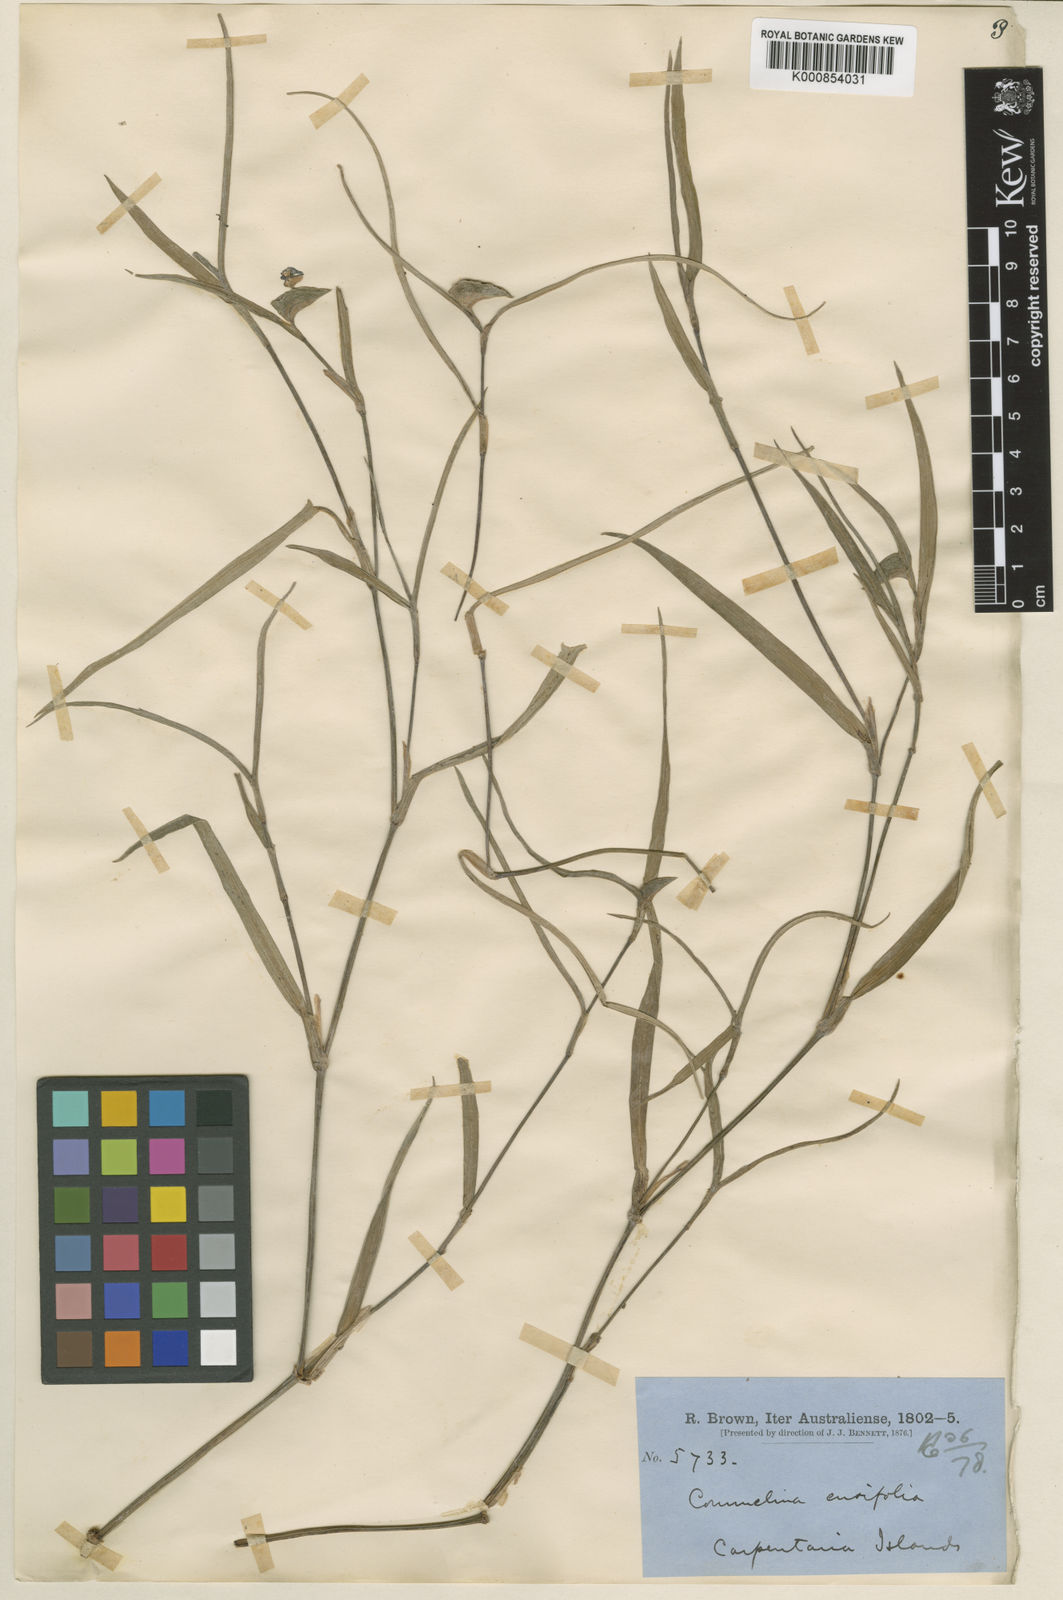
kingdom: Plantae
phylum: Tracheophyta
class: Liliopsida
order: Commelinales
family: Commelinaceae
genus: Commelina
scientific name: Commelina ensifolia
